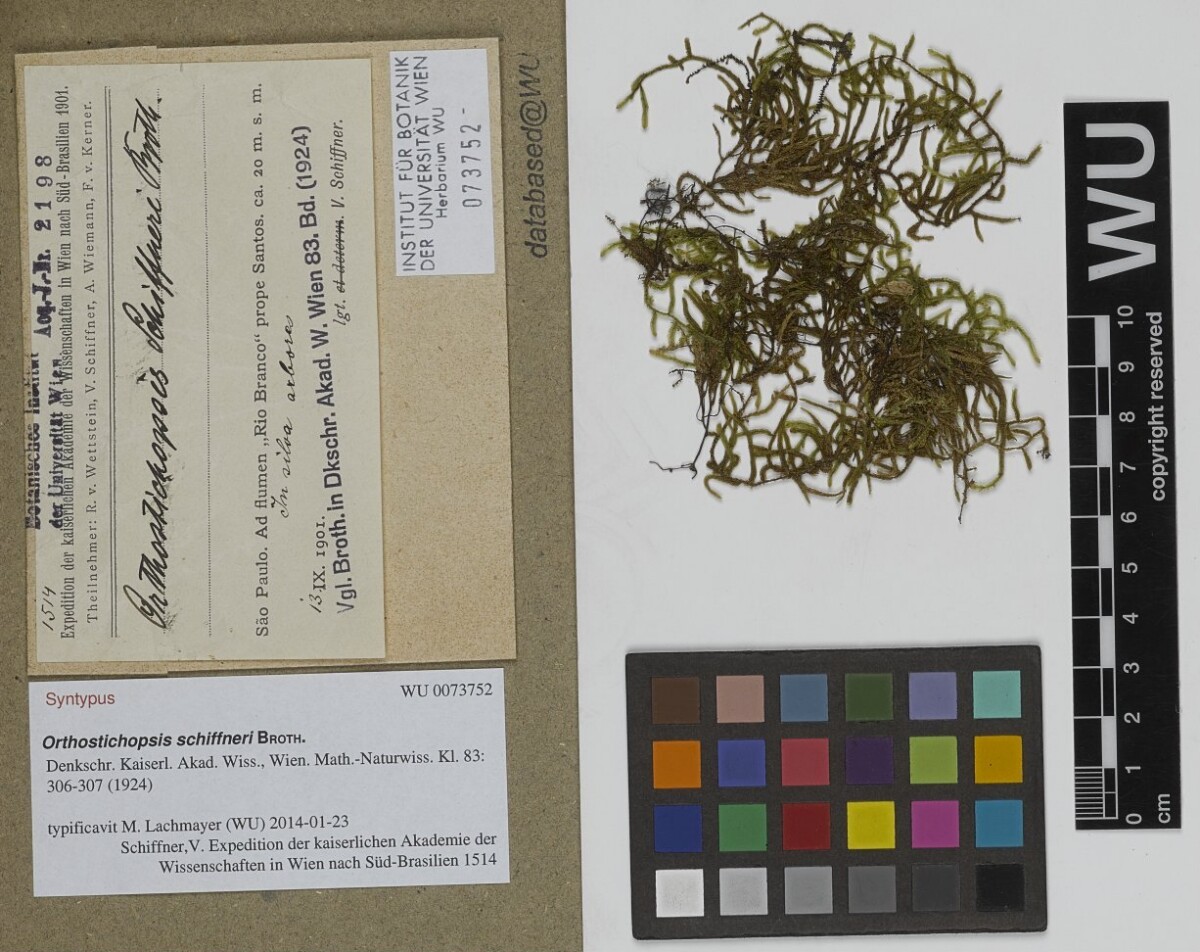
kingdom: Plantae
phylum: Bryophyta
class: Bryopsida
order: Hypnales
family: Pterobryaceae
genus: Orthostichopsis
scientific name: Orthostichopsis tenuis
